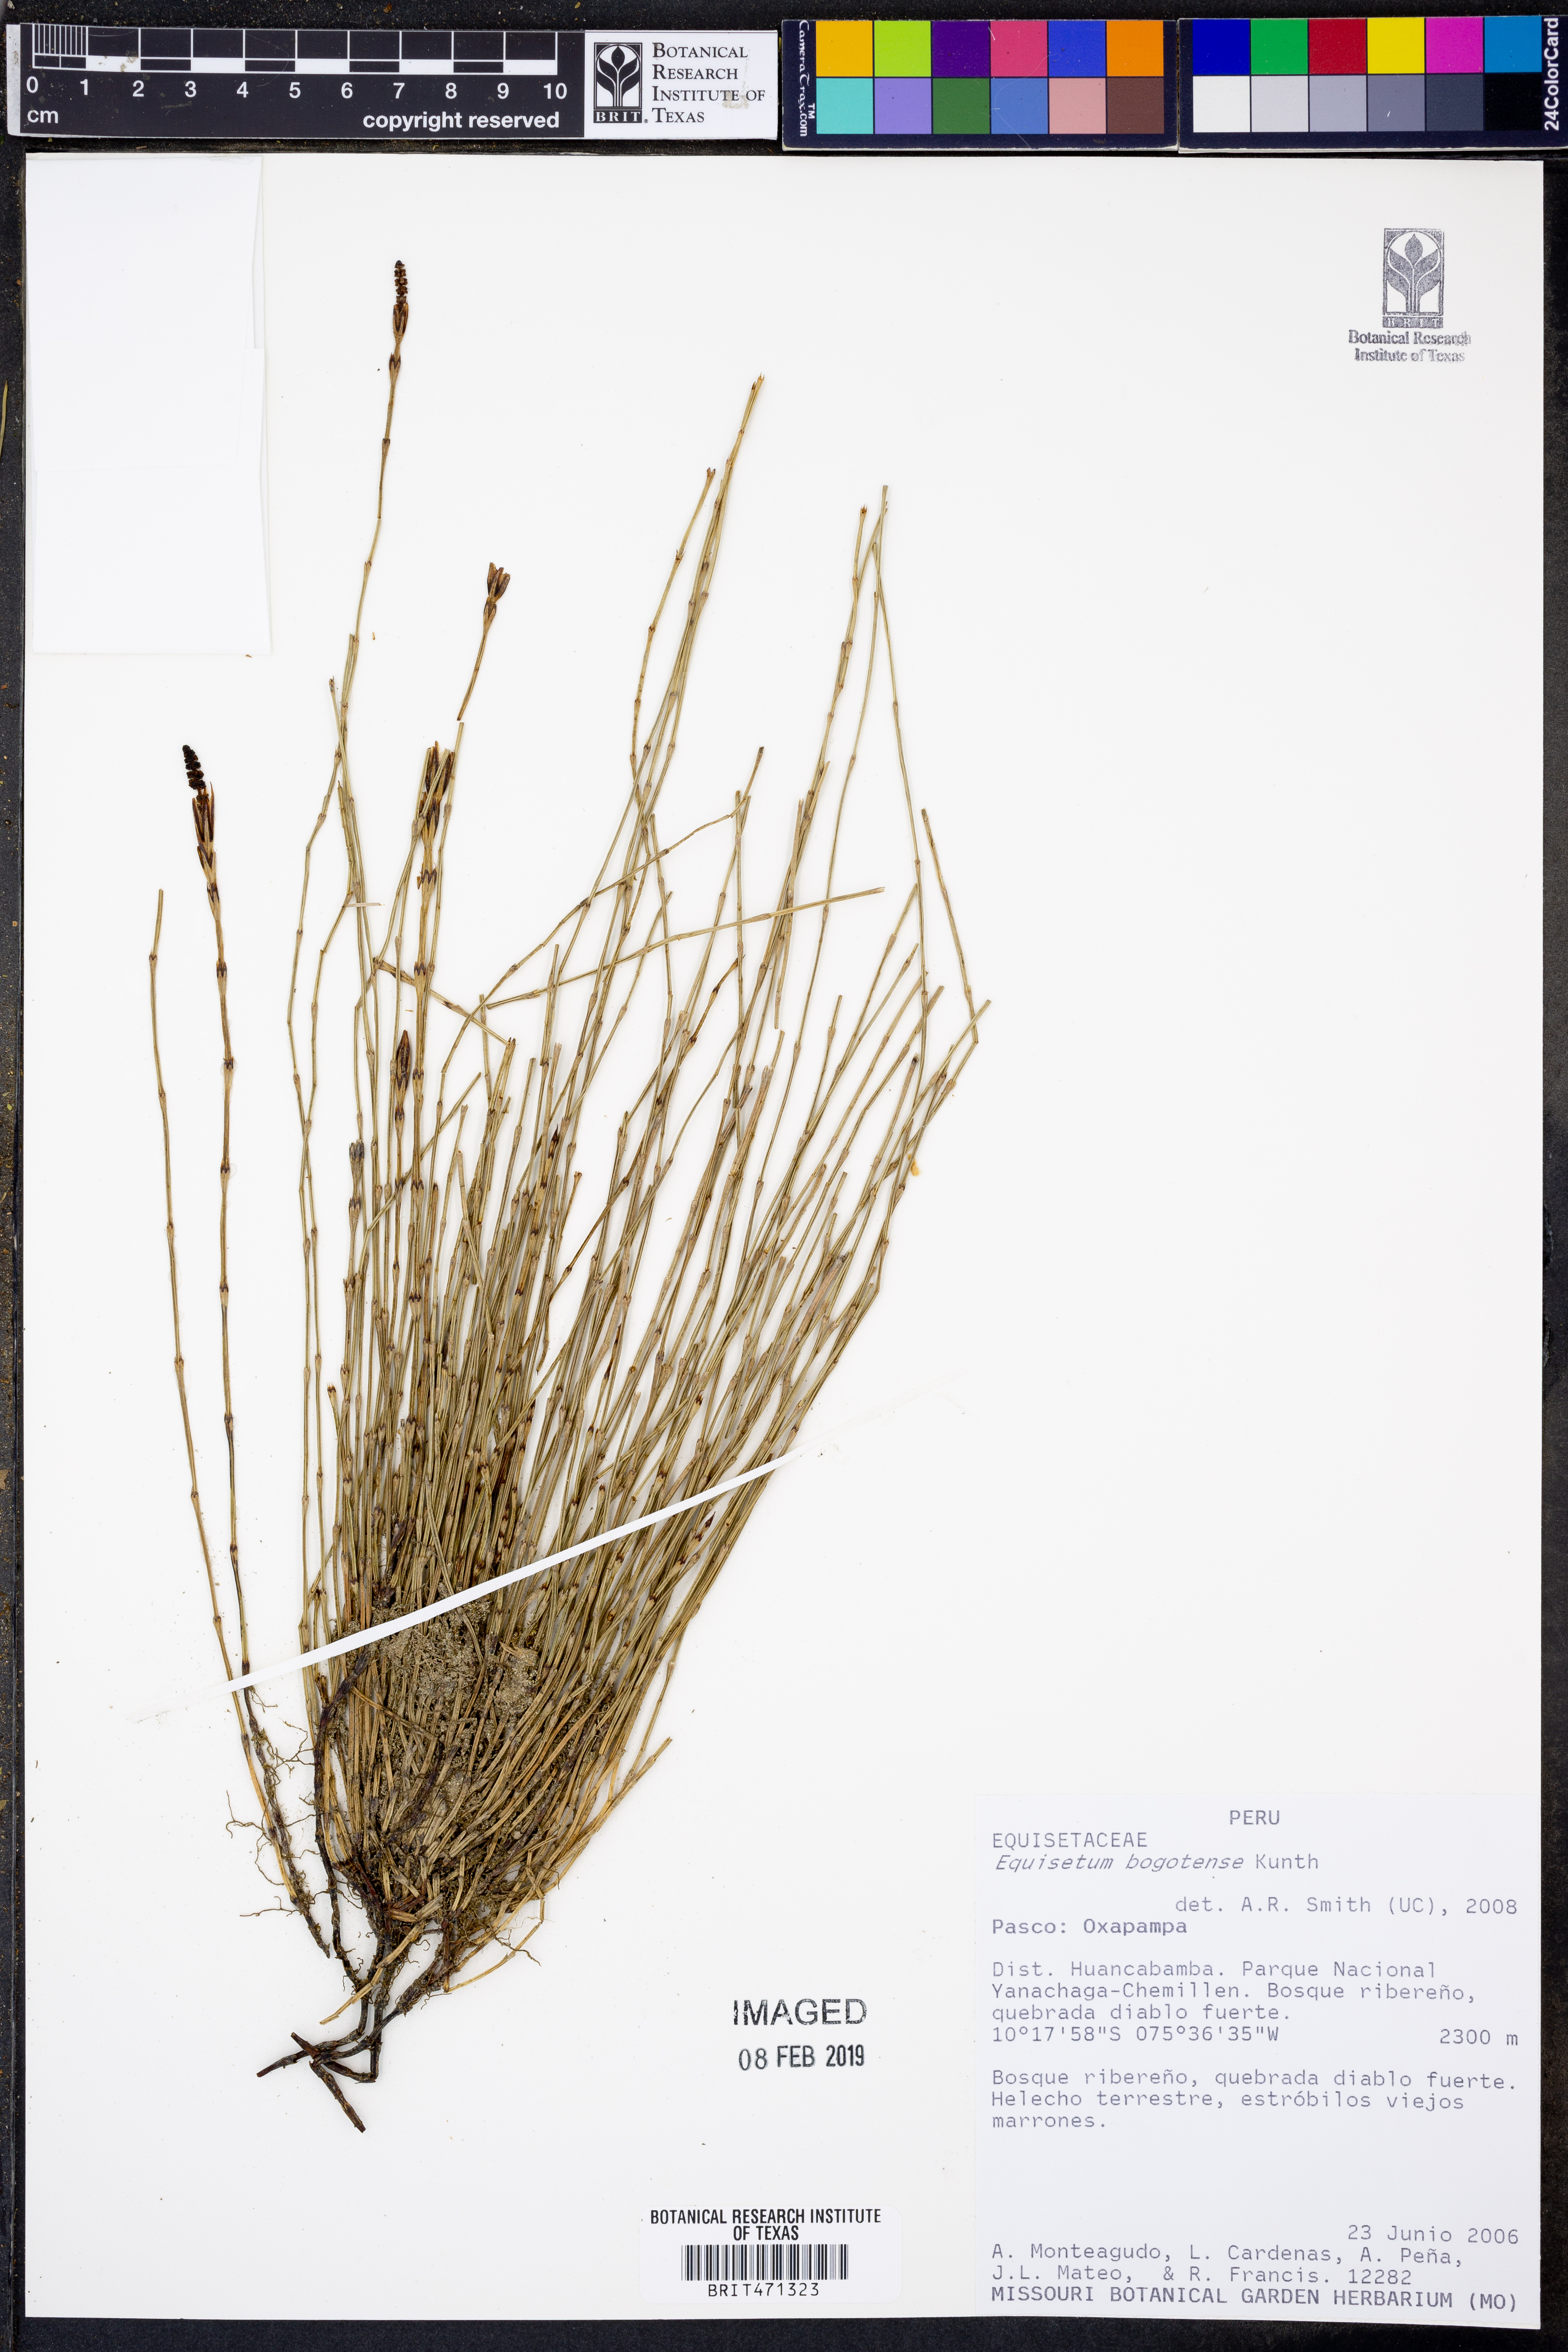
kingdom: Plantae
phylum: Tracheophyta
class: Polypodiopsida
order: Equisetales
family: Equisetaceae
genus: Equisetum
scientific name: Equisetum bogotense
